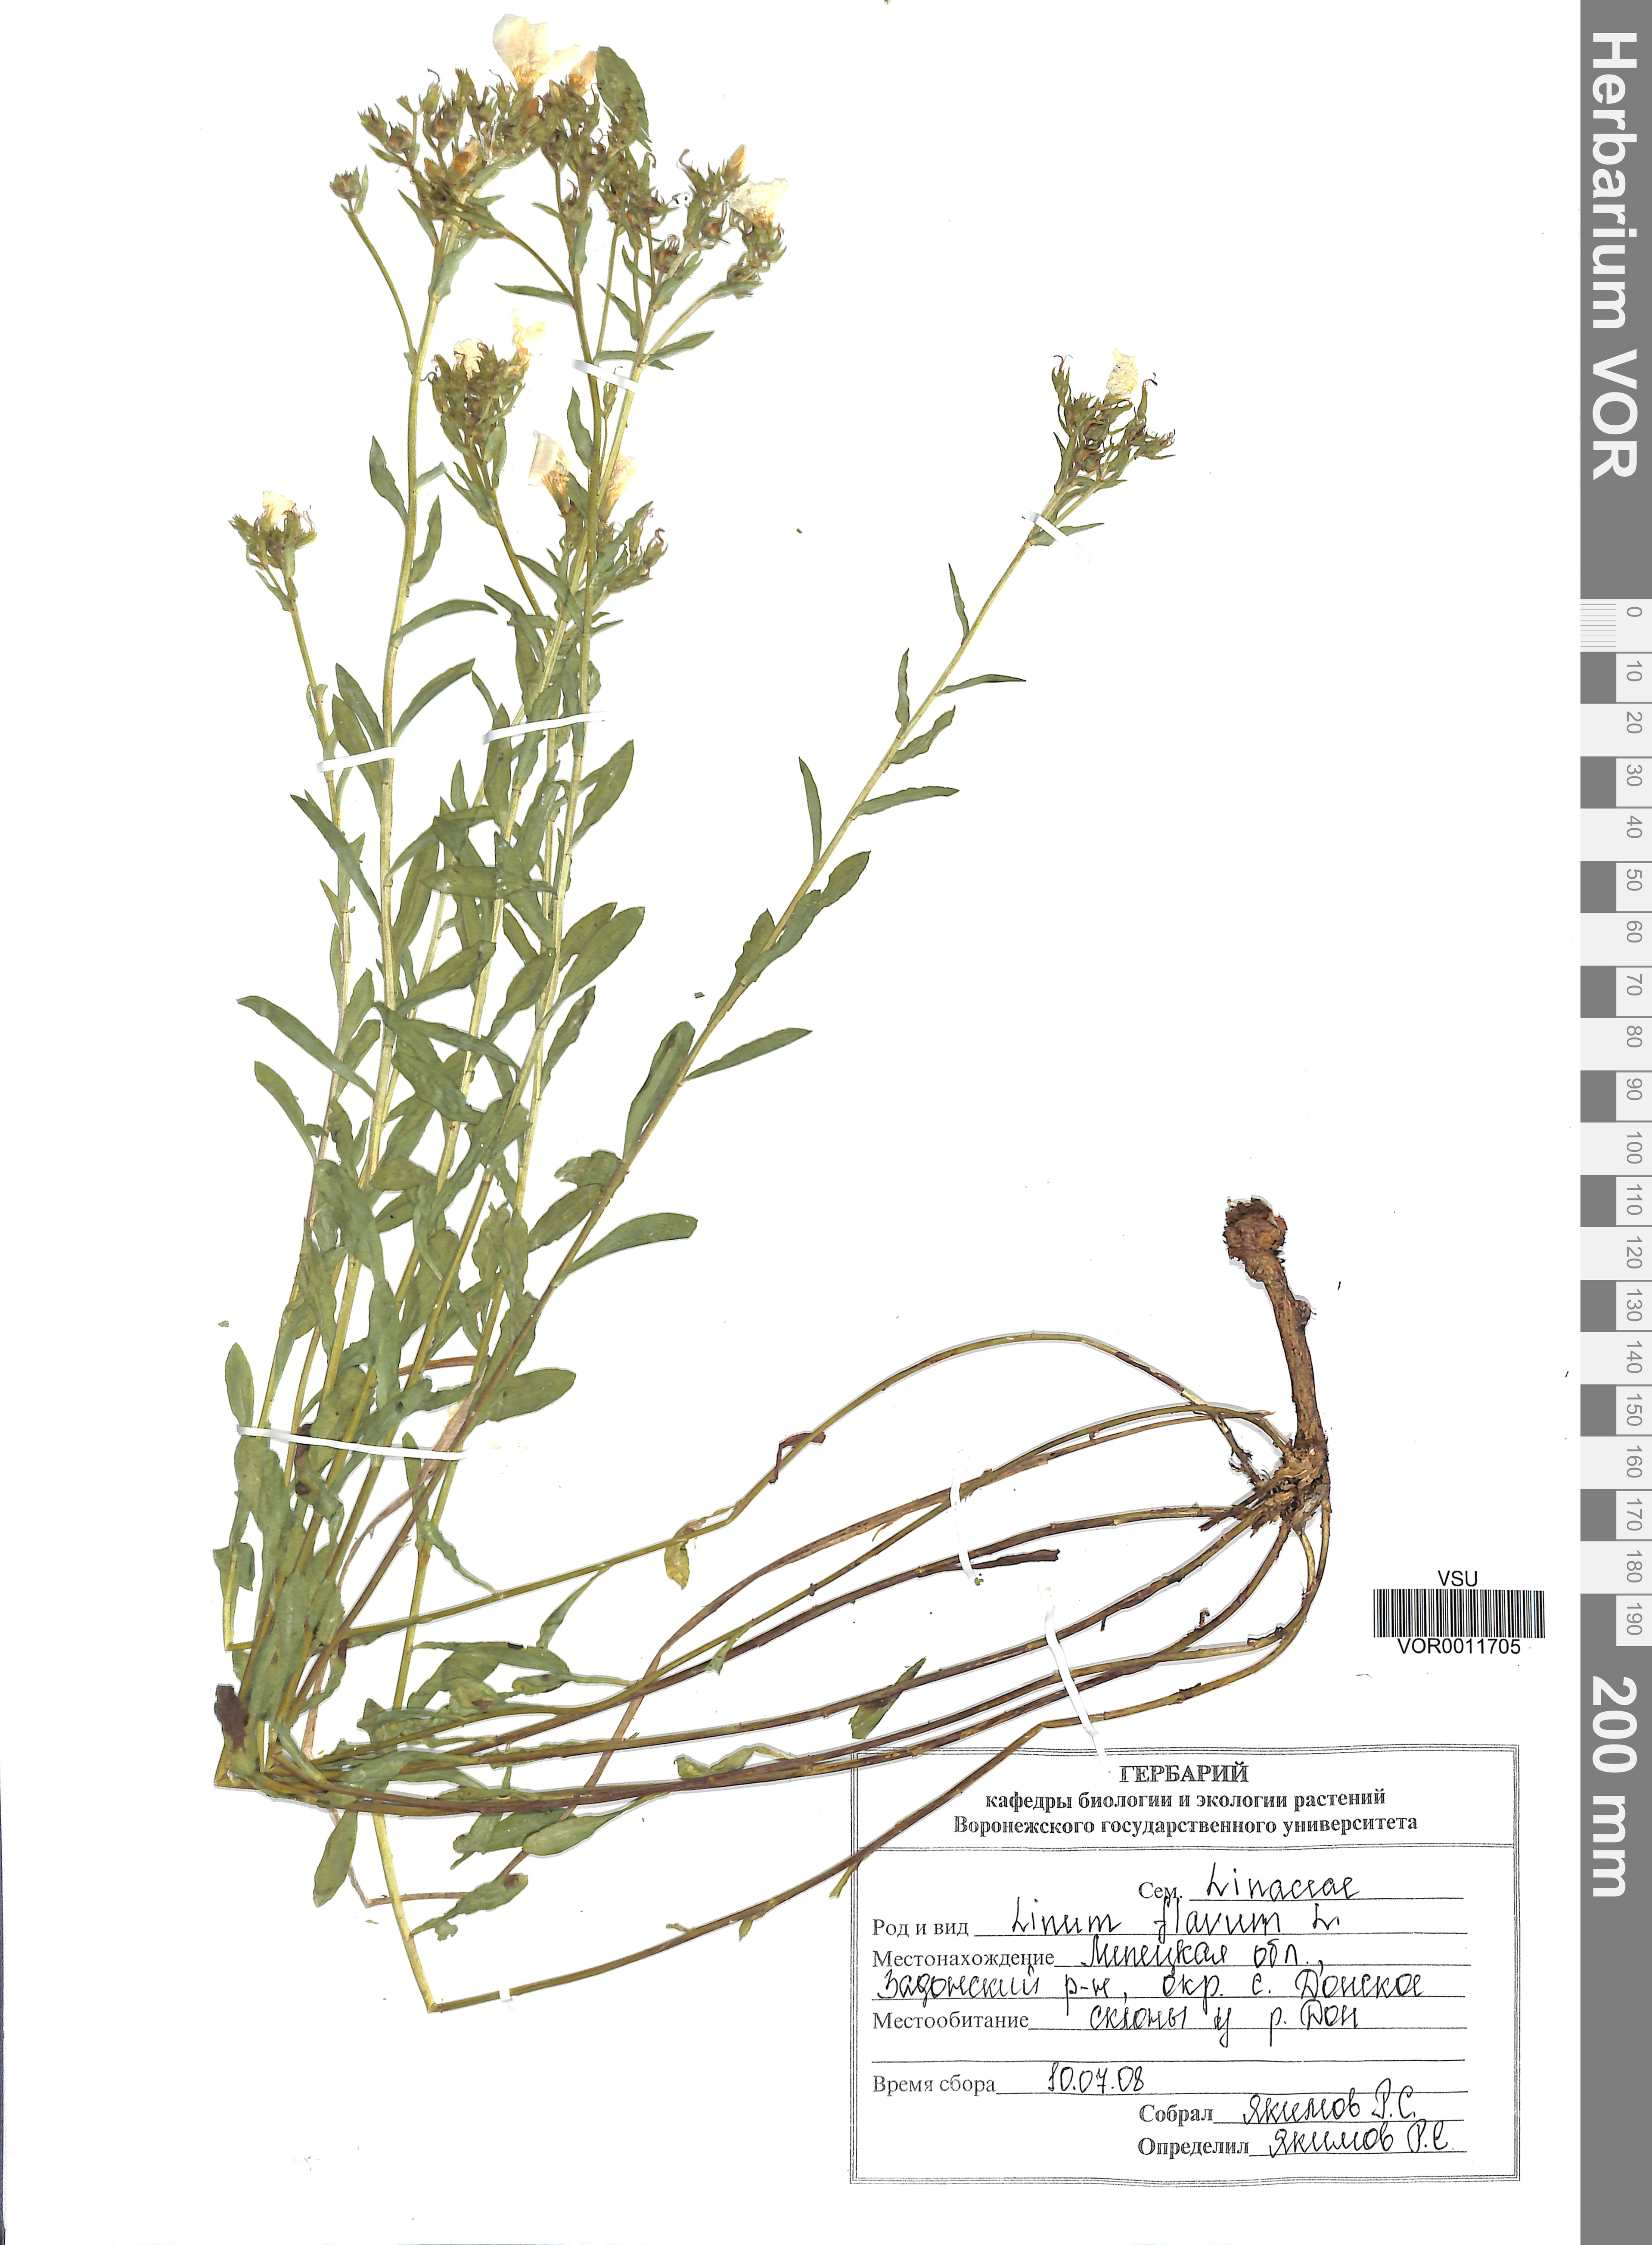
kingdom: Plantae
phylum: Tracheophyta
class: Magnoliopsida
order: Malpighiales
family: Linaceae
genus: Linum
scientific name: Linum flavum
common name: Yellow flax
